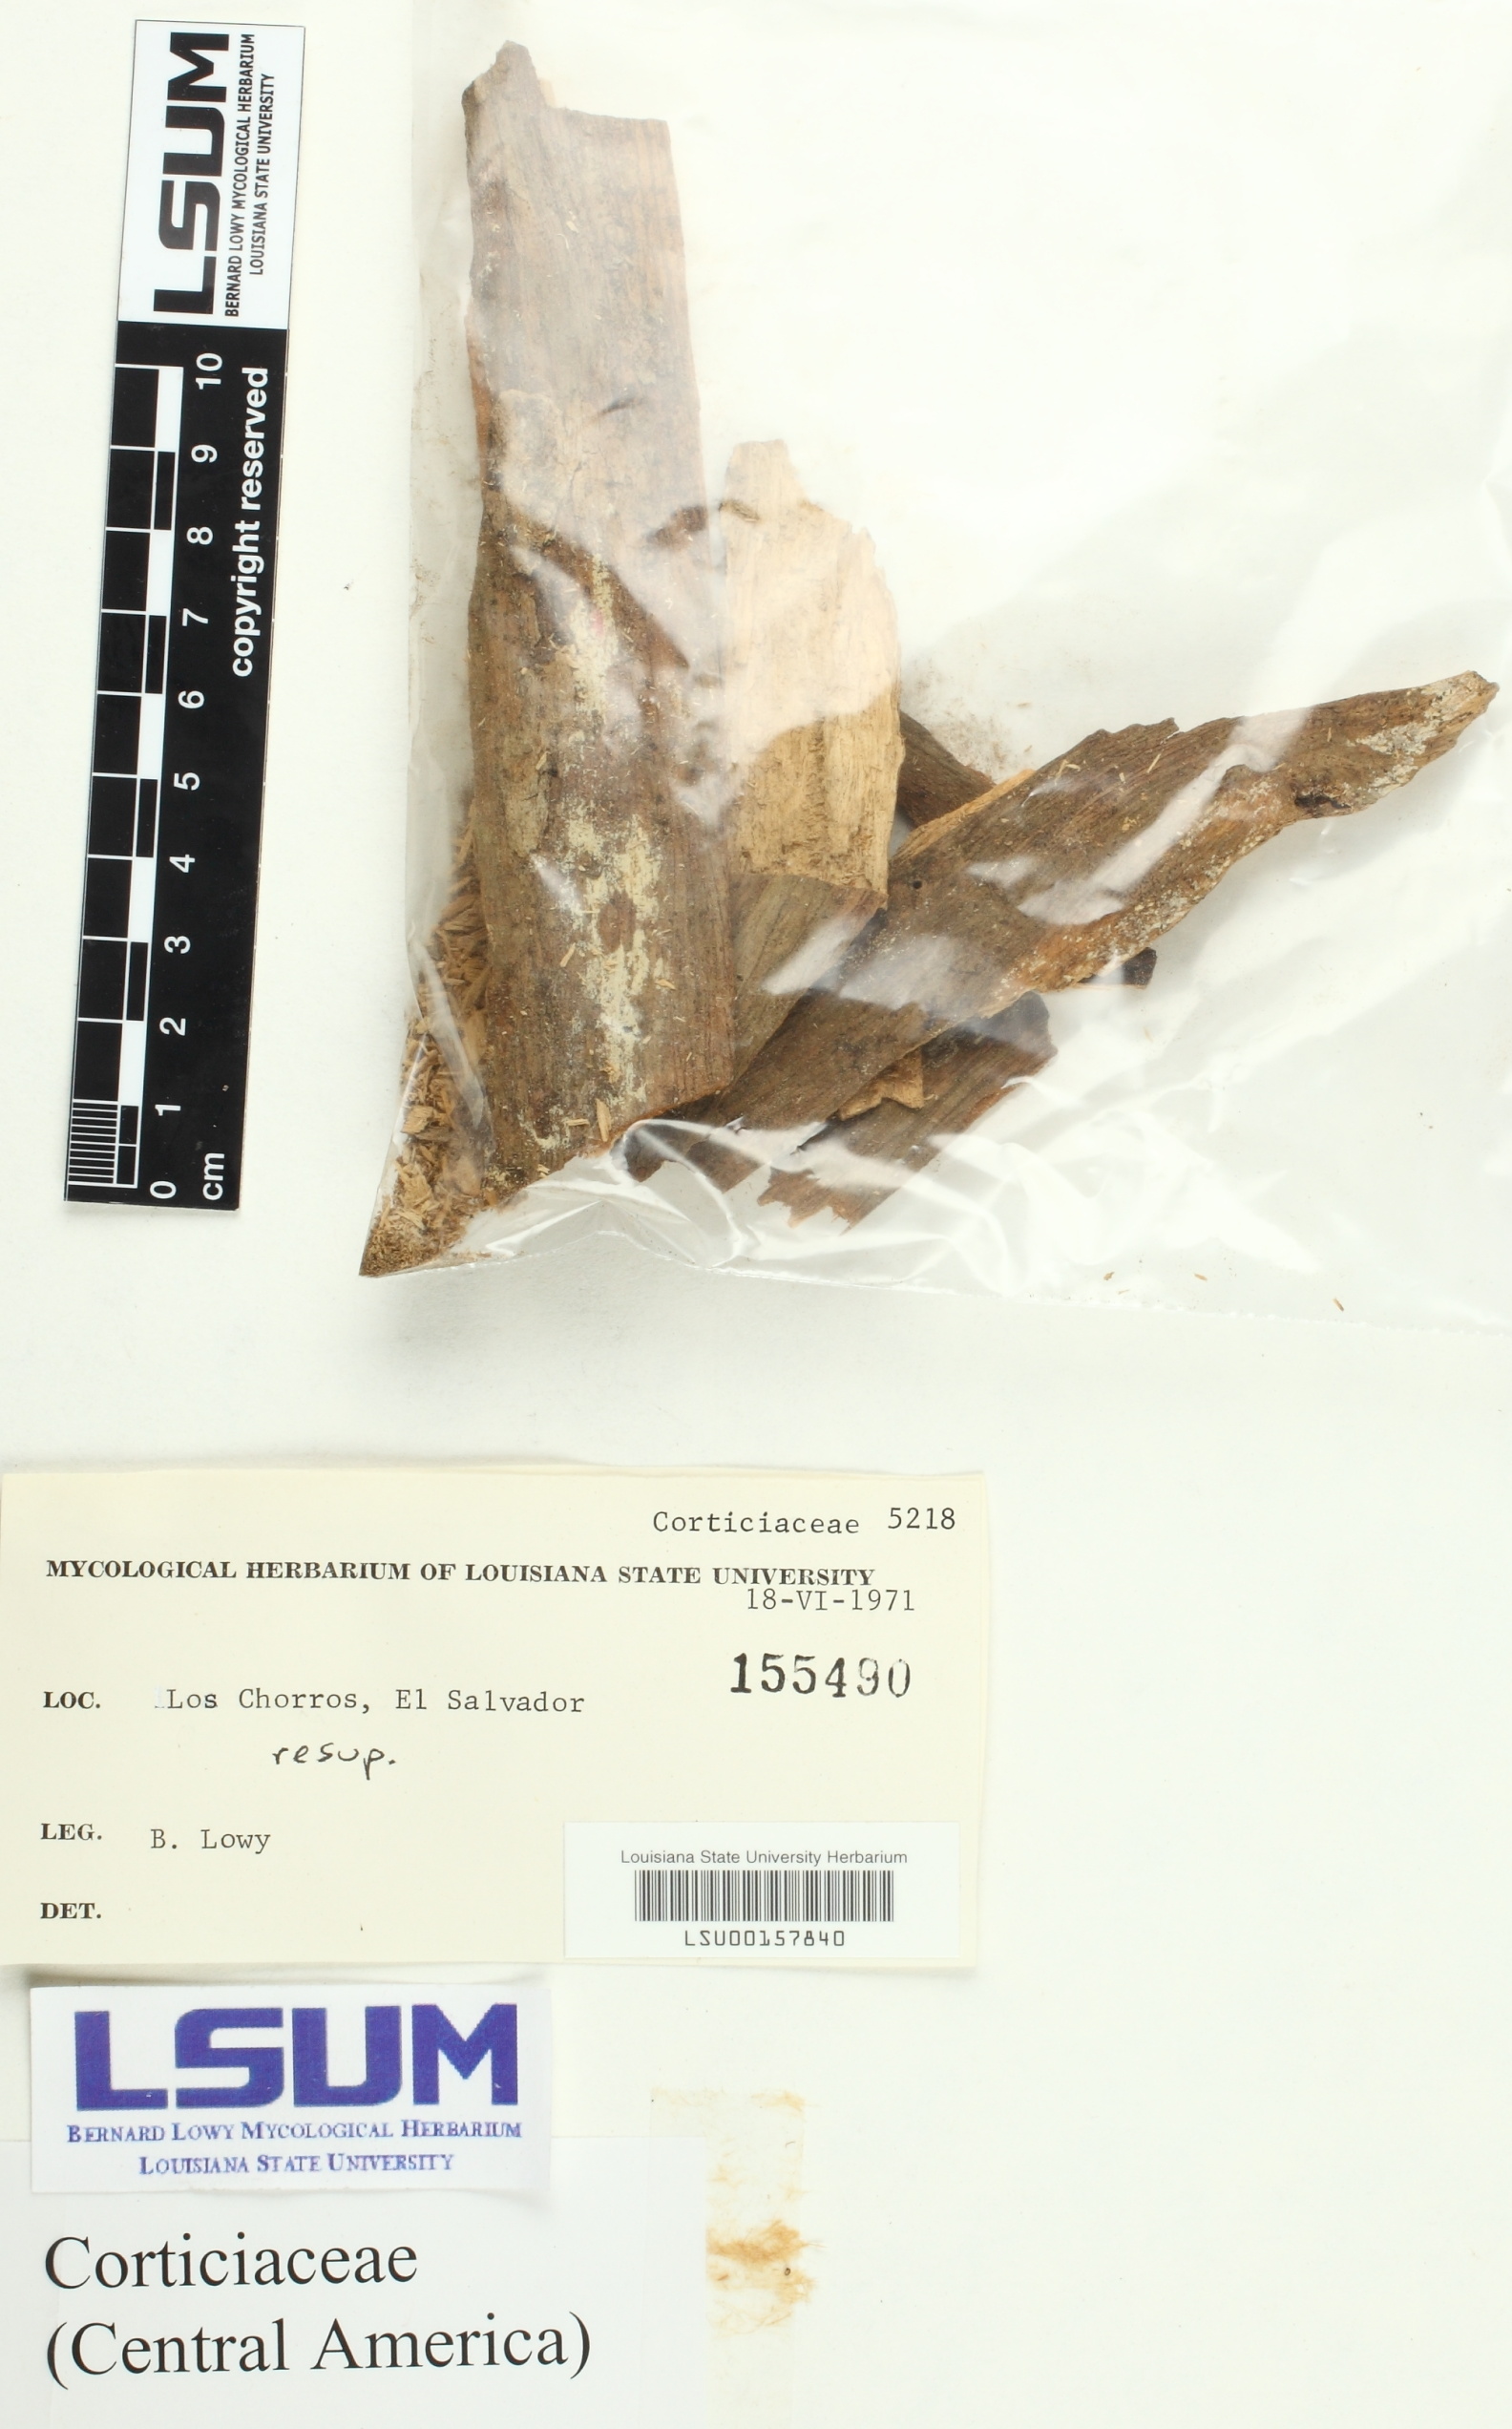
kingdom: Fungi
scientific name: Fungi
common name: Fungi
